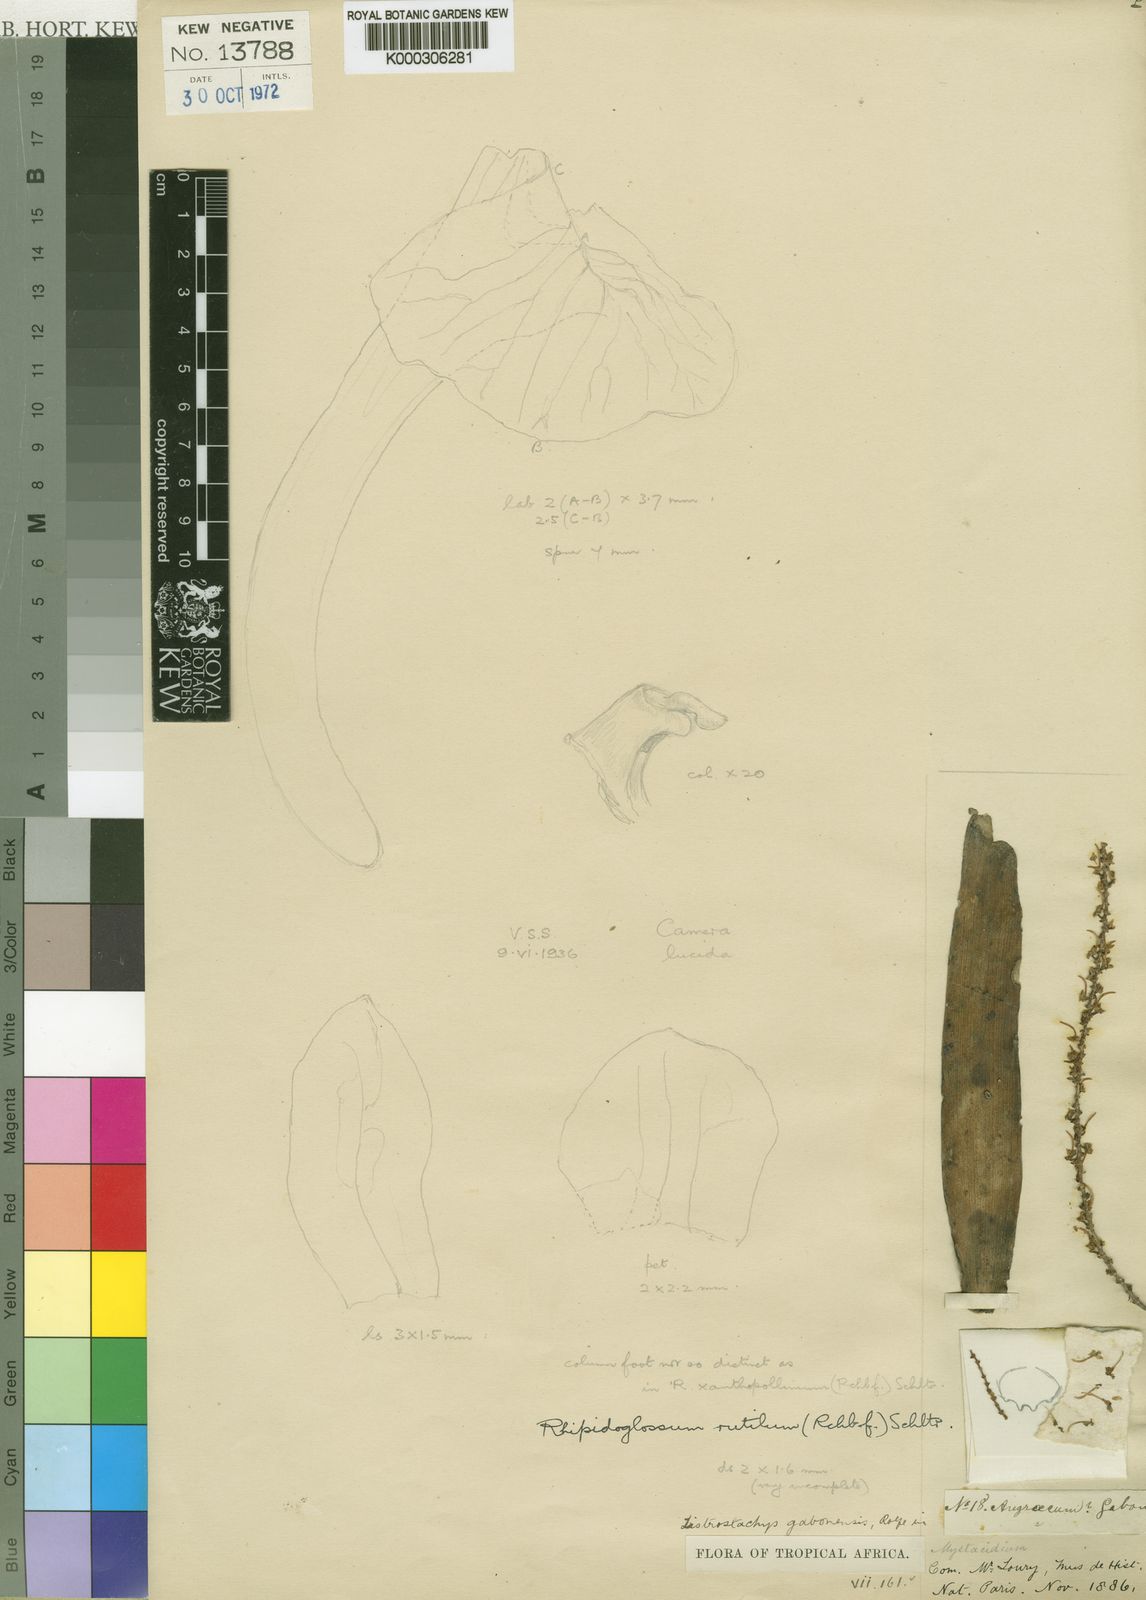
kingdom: Plantae
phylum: Tracheophyta
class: Liliopsida
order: Asparagales
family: Orchidaceae
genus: Rhipidoglossum
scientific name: Rhipidoglossum rutilum
